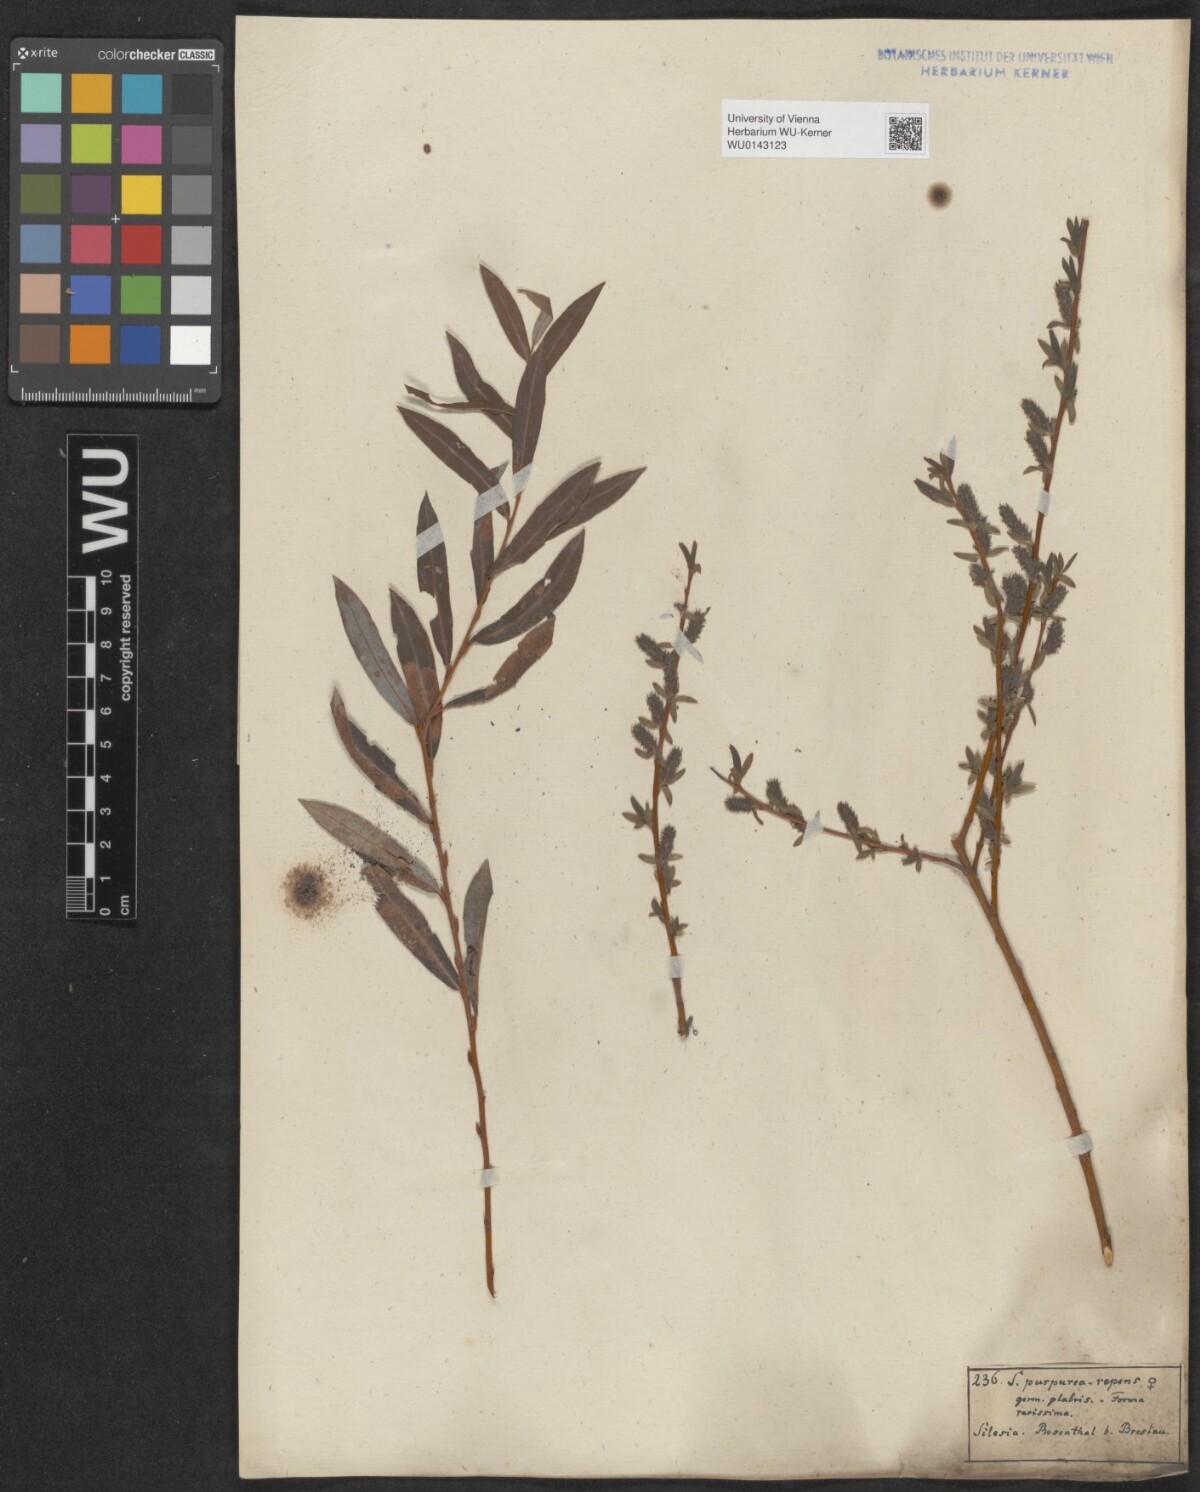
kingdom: Plantae
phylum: Tracheophyta
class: Magnoliopsida
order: Malpighiales
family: Salicaceae
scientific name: Salicaceae
